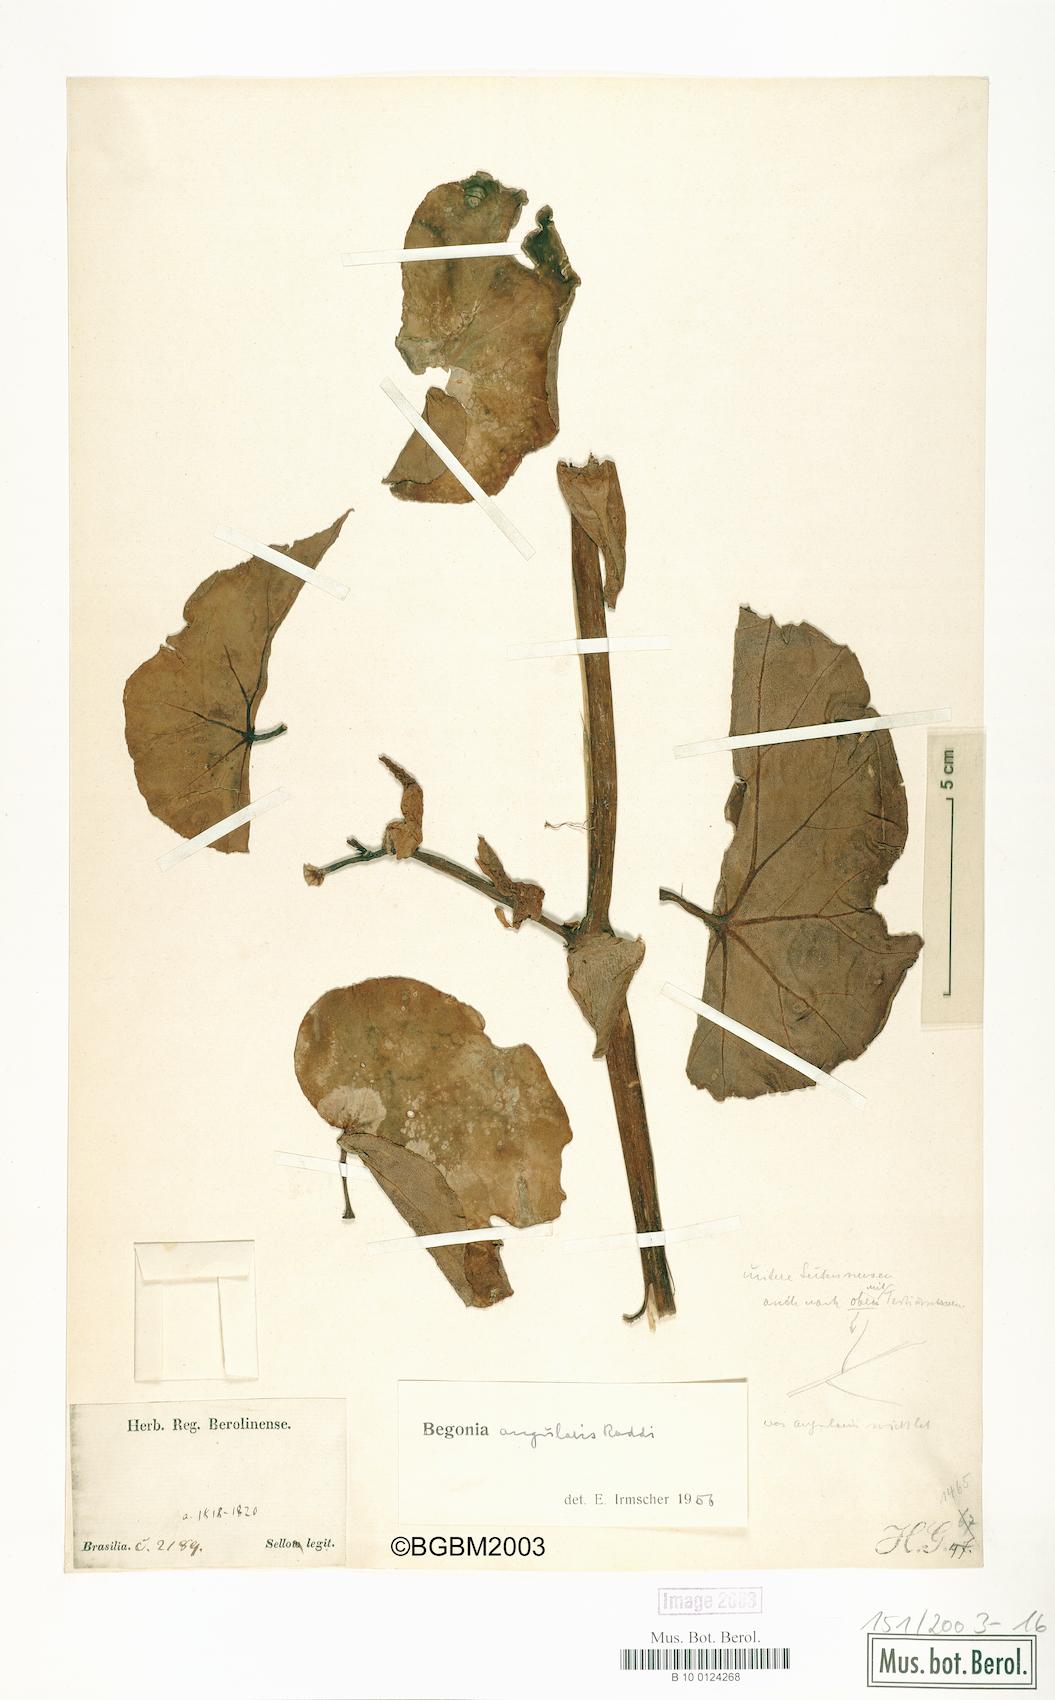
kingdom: Plantae
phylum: Tracheophyta
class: Magnoliopsida
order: Cucurbitales
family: Begoniaceae
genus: Begonia
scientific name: Begonia angularis
